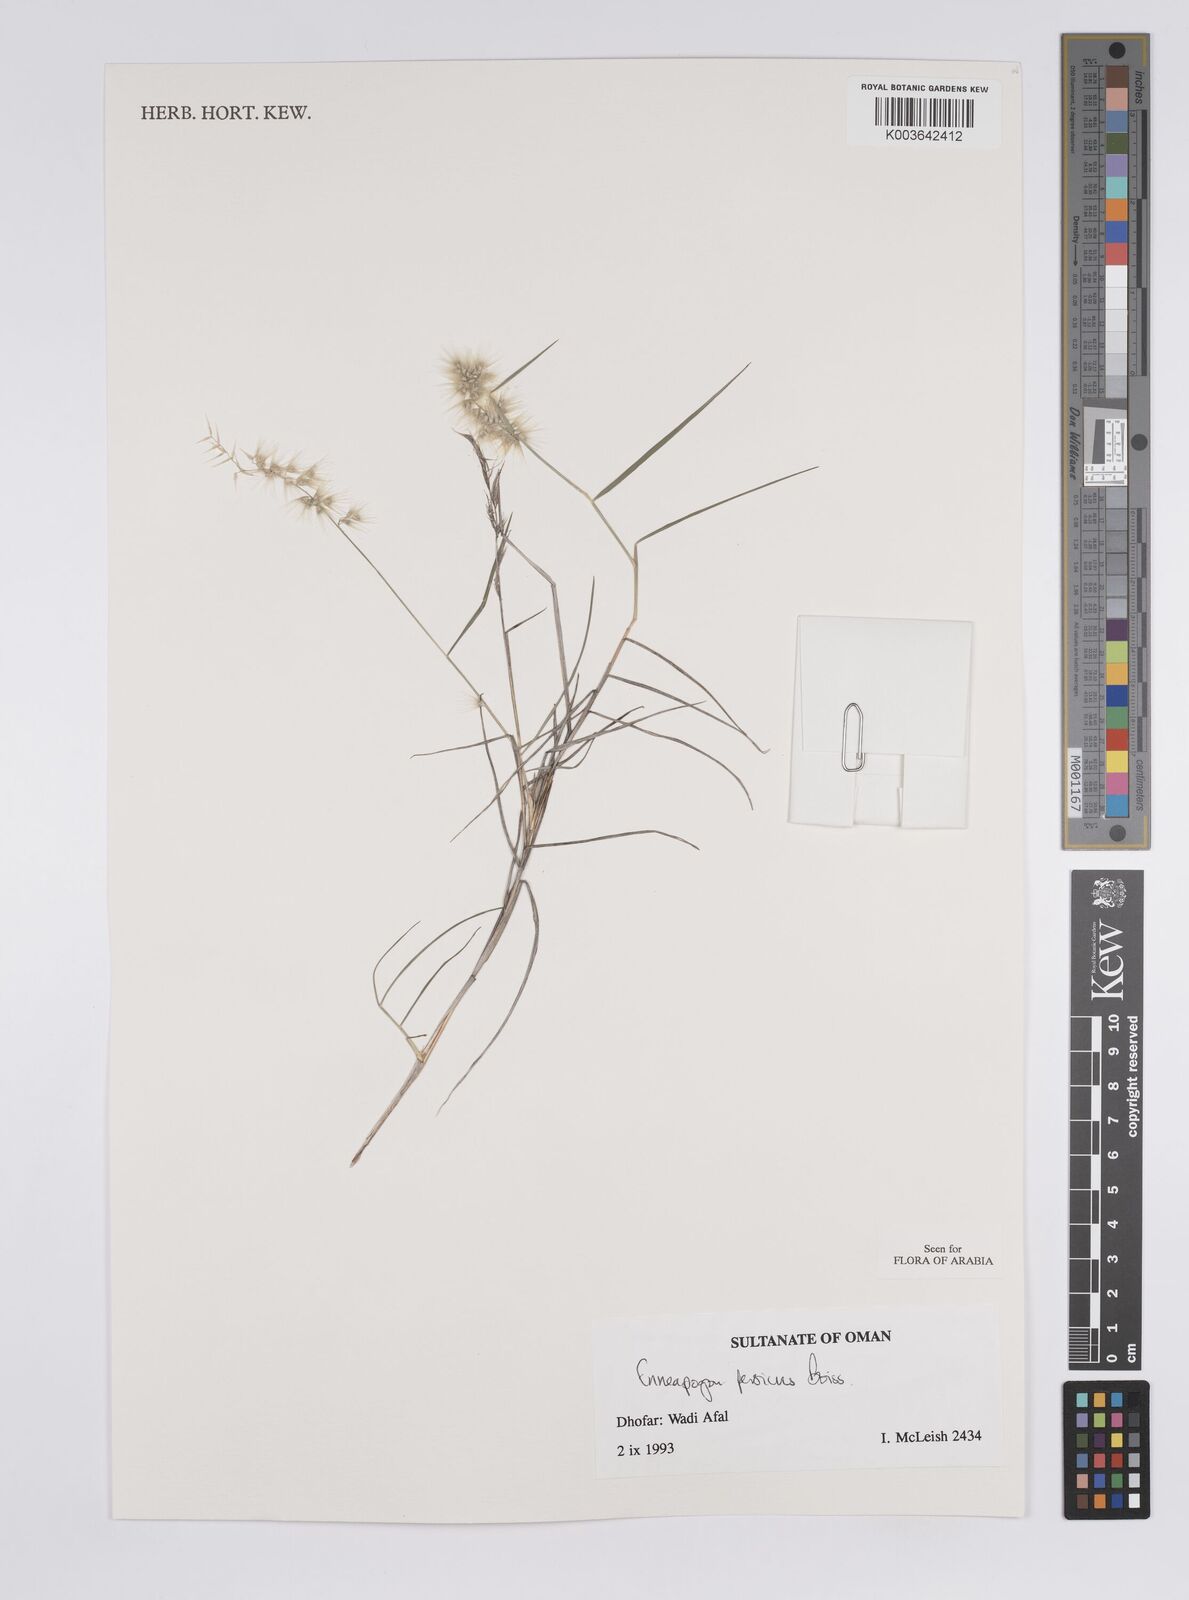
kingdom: Plantae
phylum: Tracheophyta
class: Liliopsida
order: Poales
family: Poaceae
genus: Enneapogon
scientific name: Enneapogon persicus
